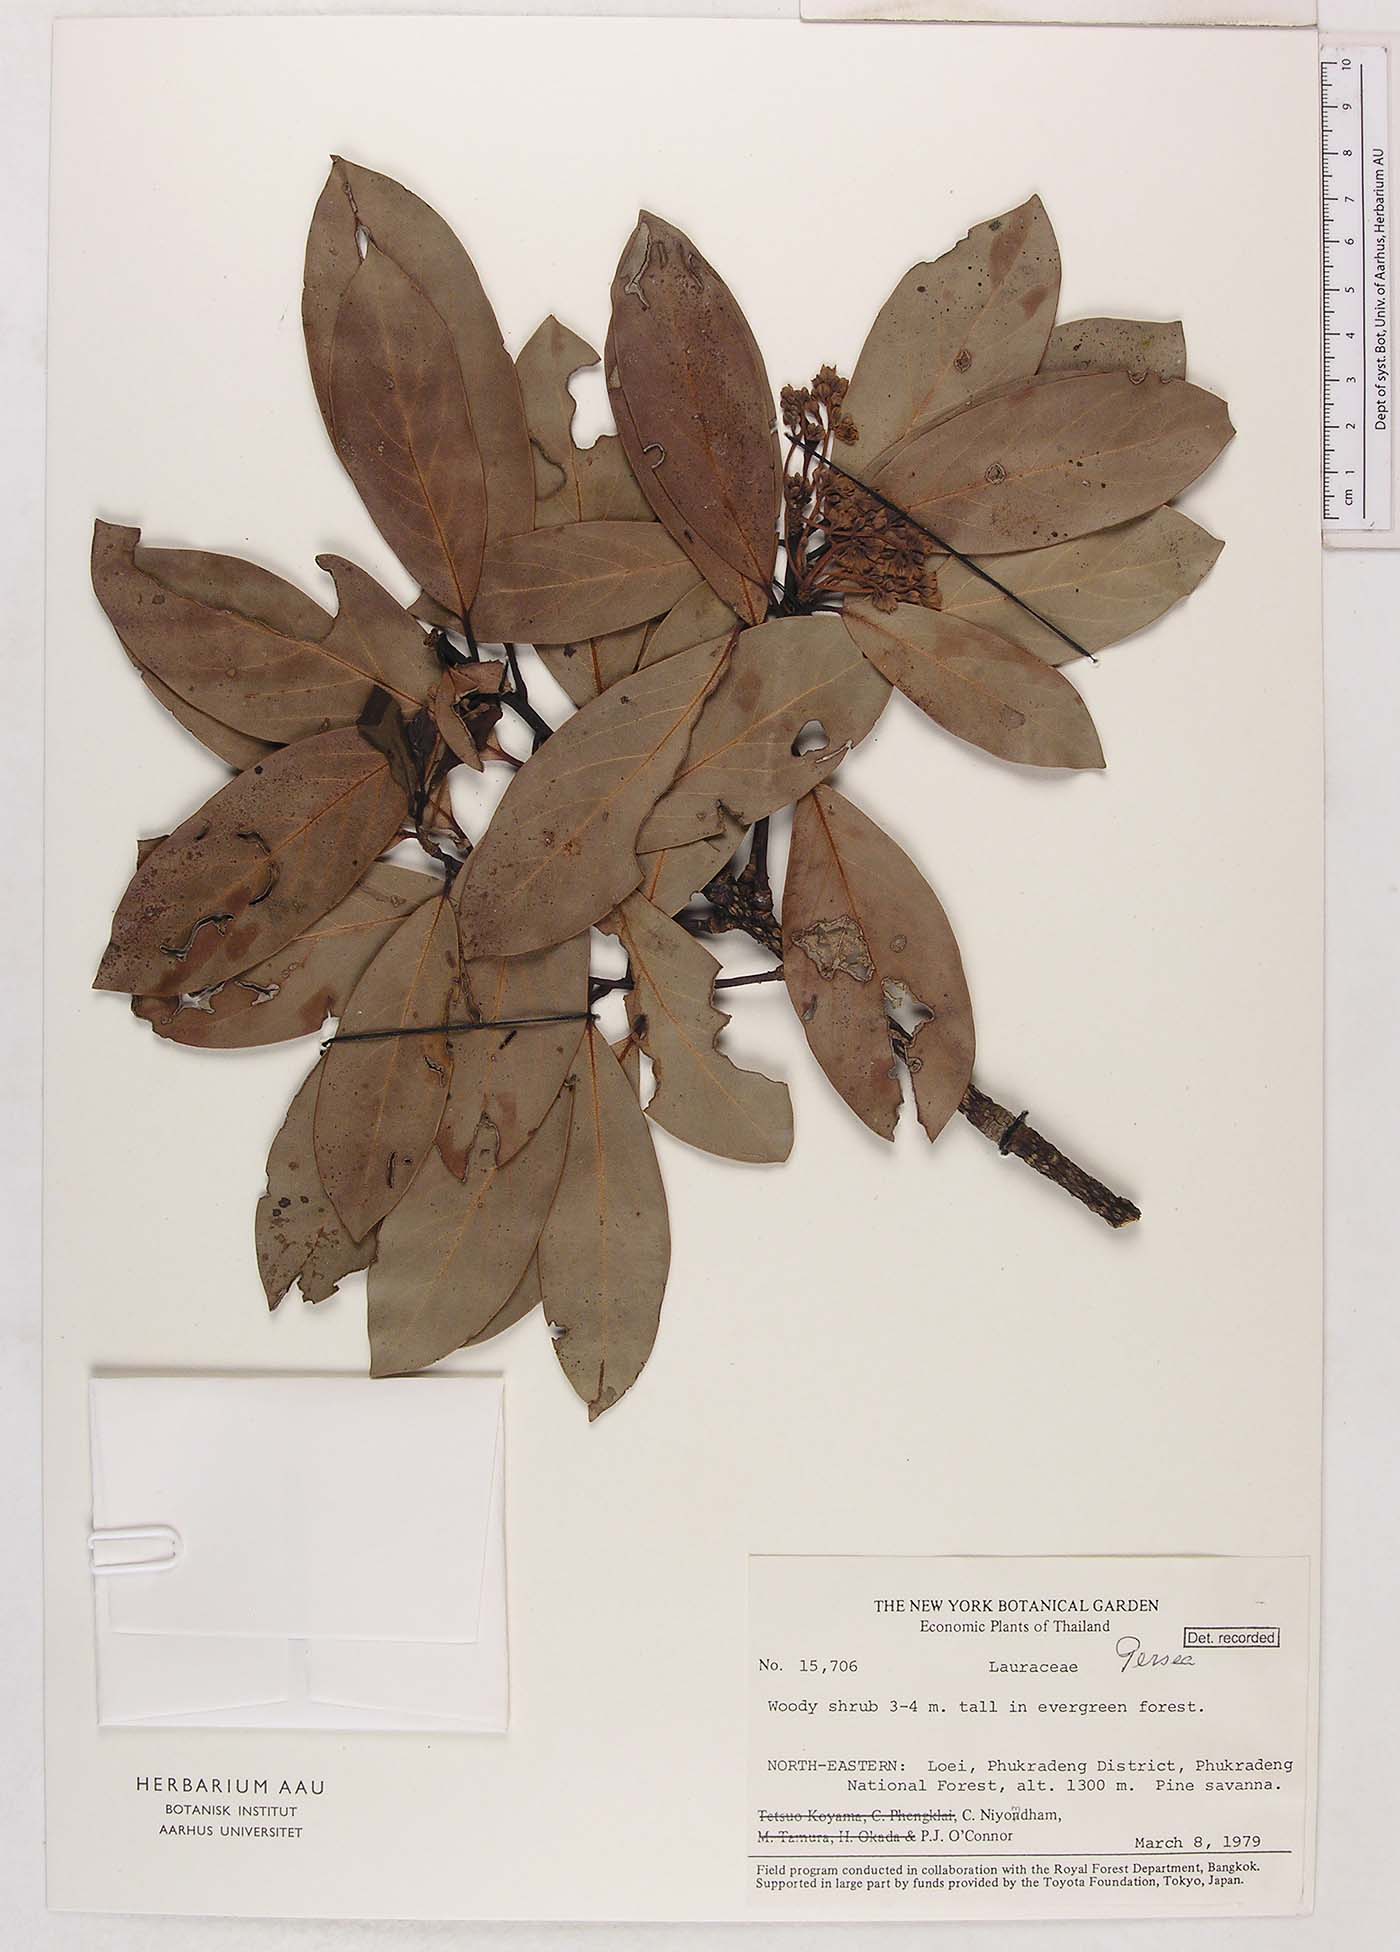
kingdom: Plantae
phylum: Tracheophyta
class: Magnoliopsida
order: Laurales
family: Lauraceae
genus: Persea
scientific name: Persea
